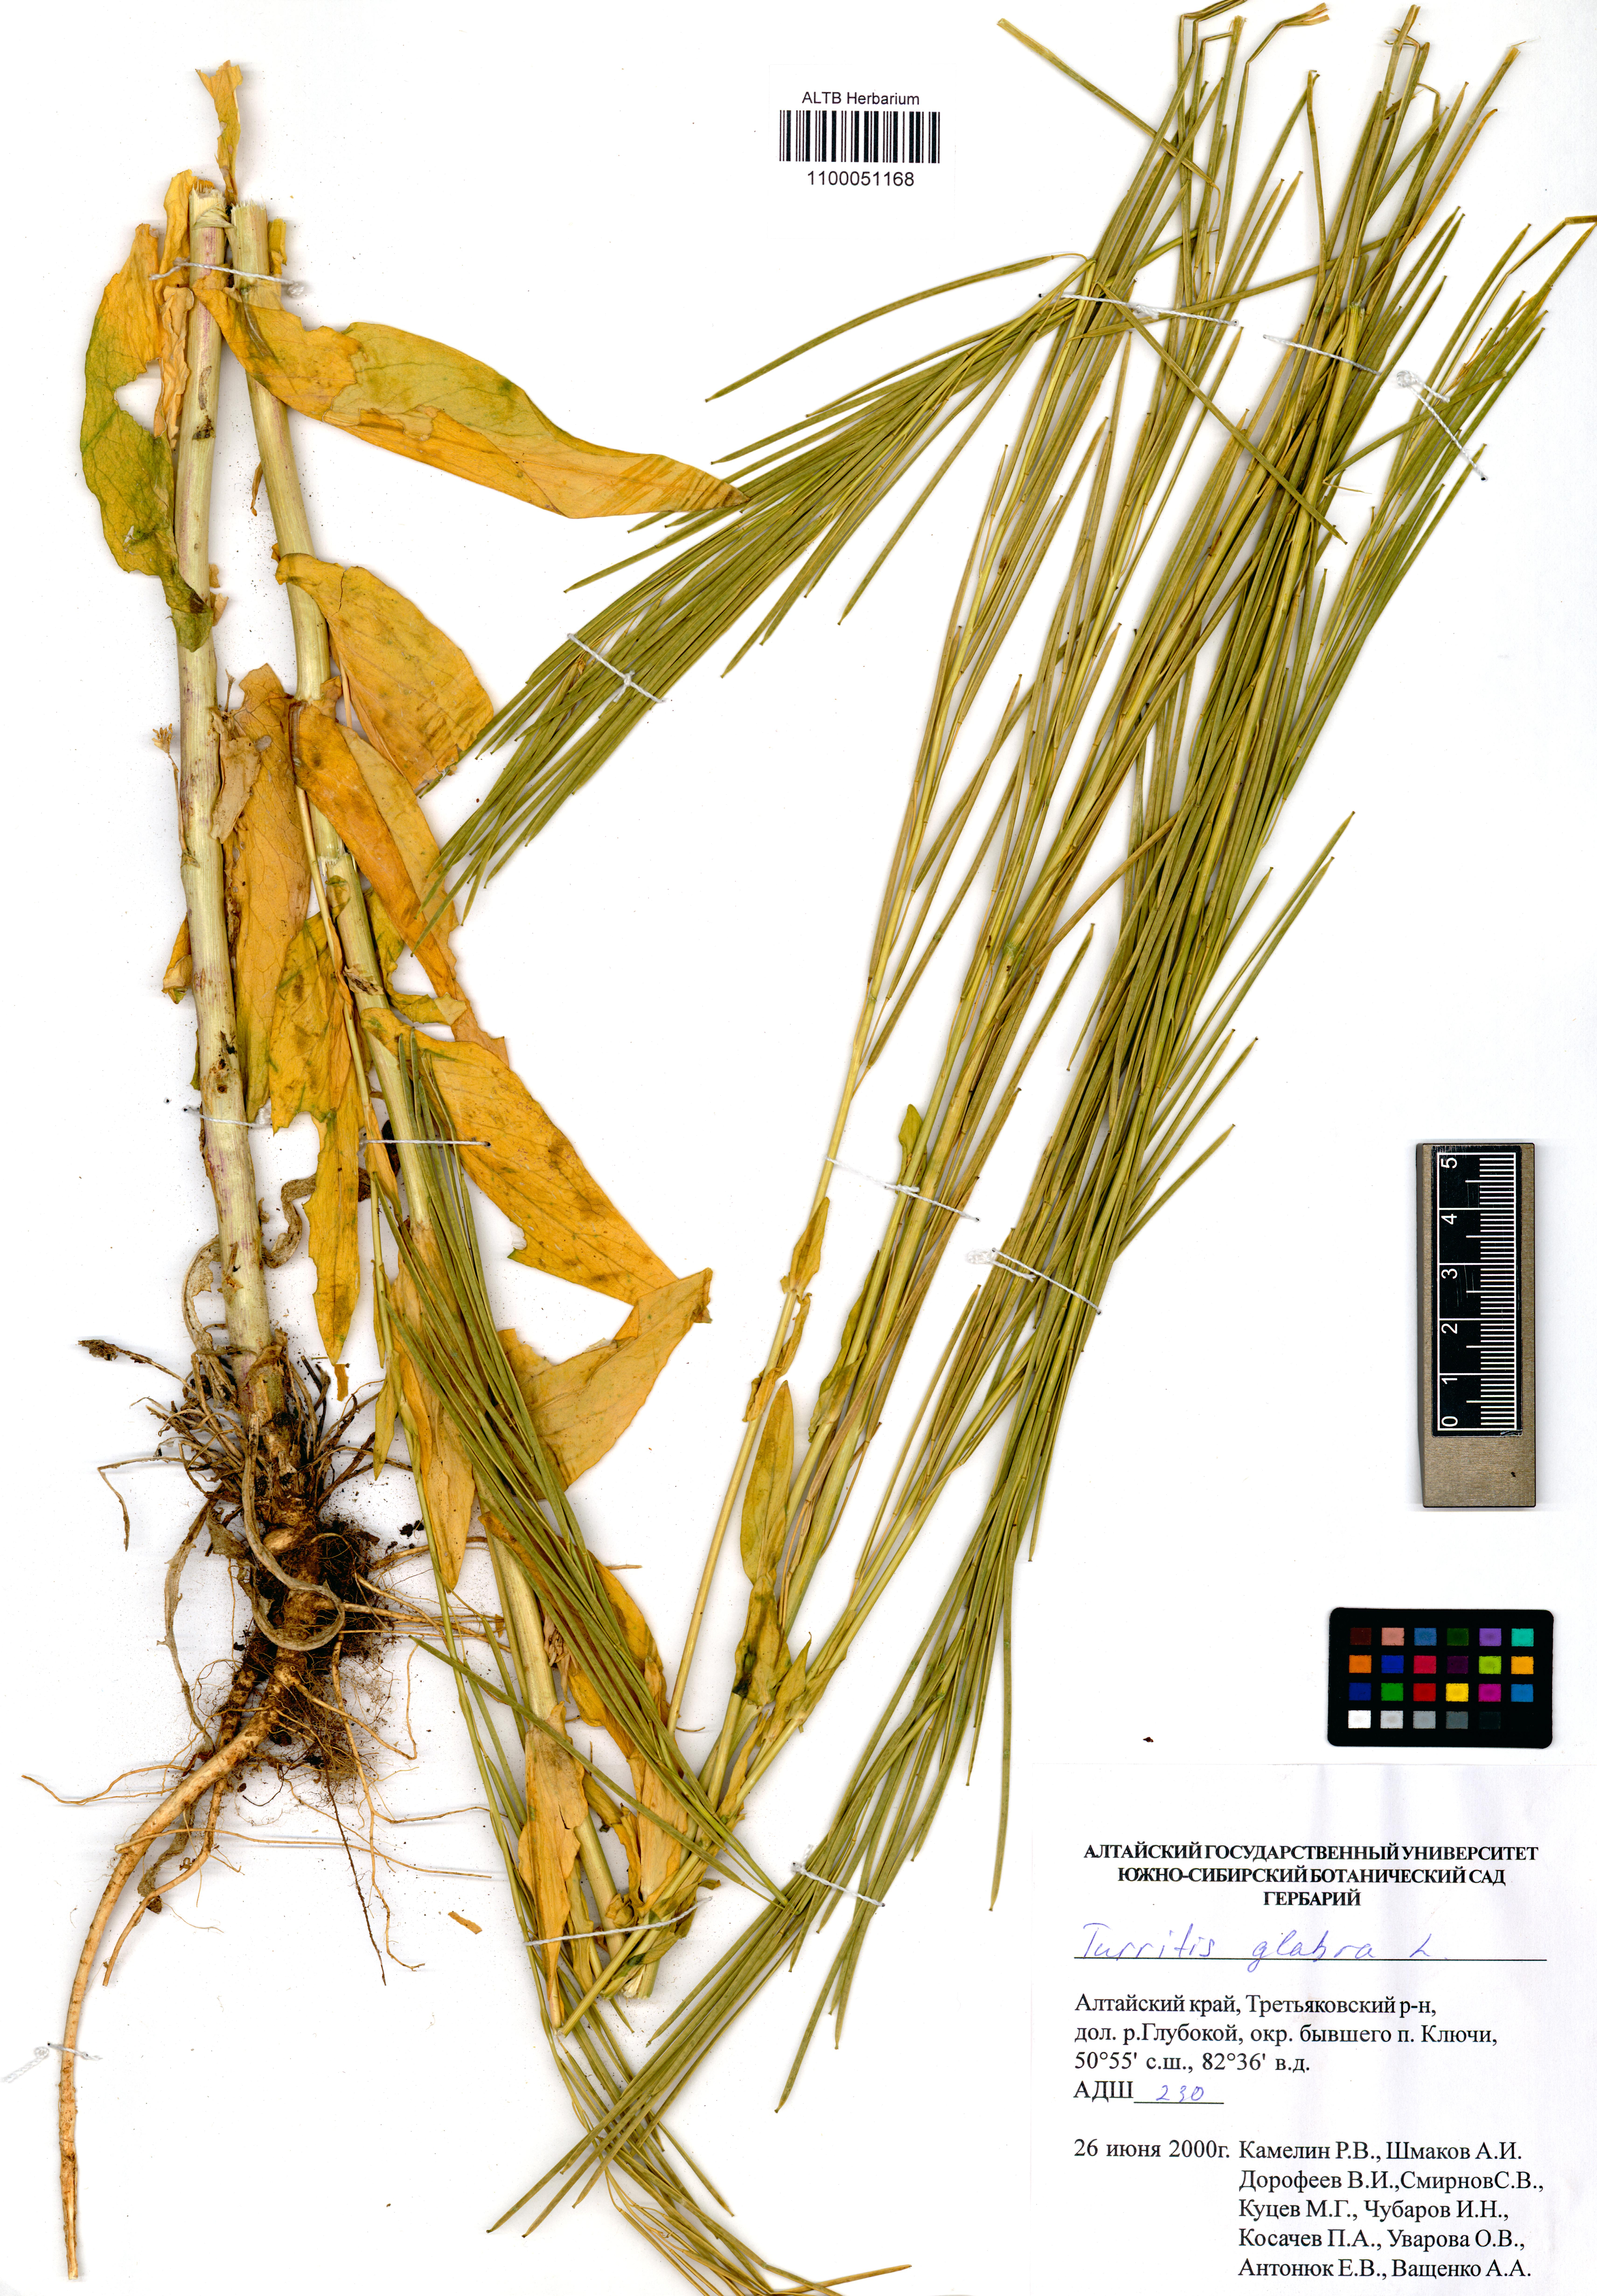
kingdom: Plantae
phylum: Tracheophyta
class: Magnoliopsida
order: Brassicales
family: Brassicaceae
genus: Turritis
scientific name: Turritis glabra
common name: Tower rockcress
